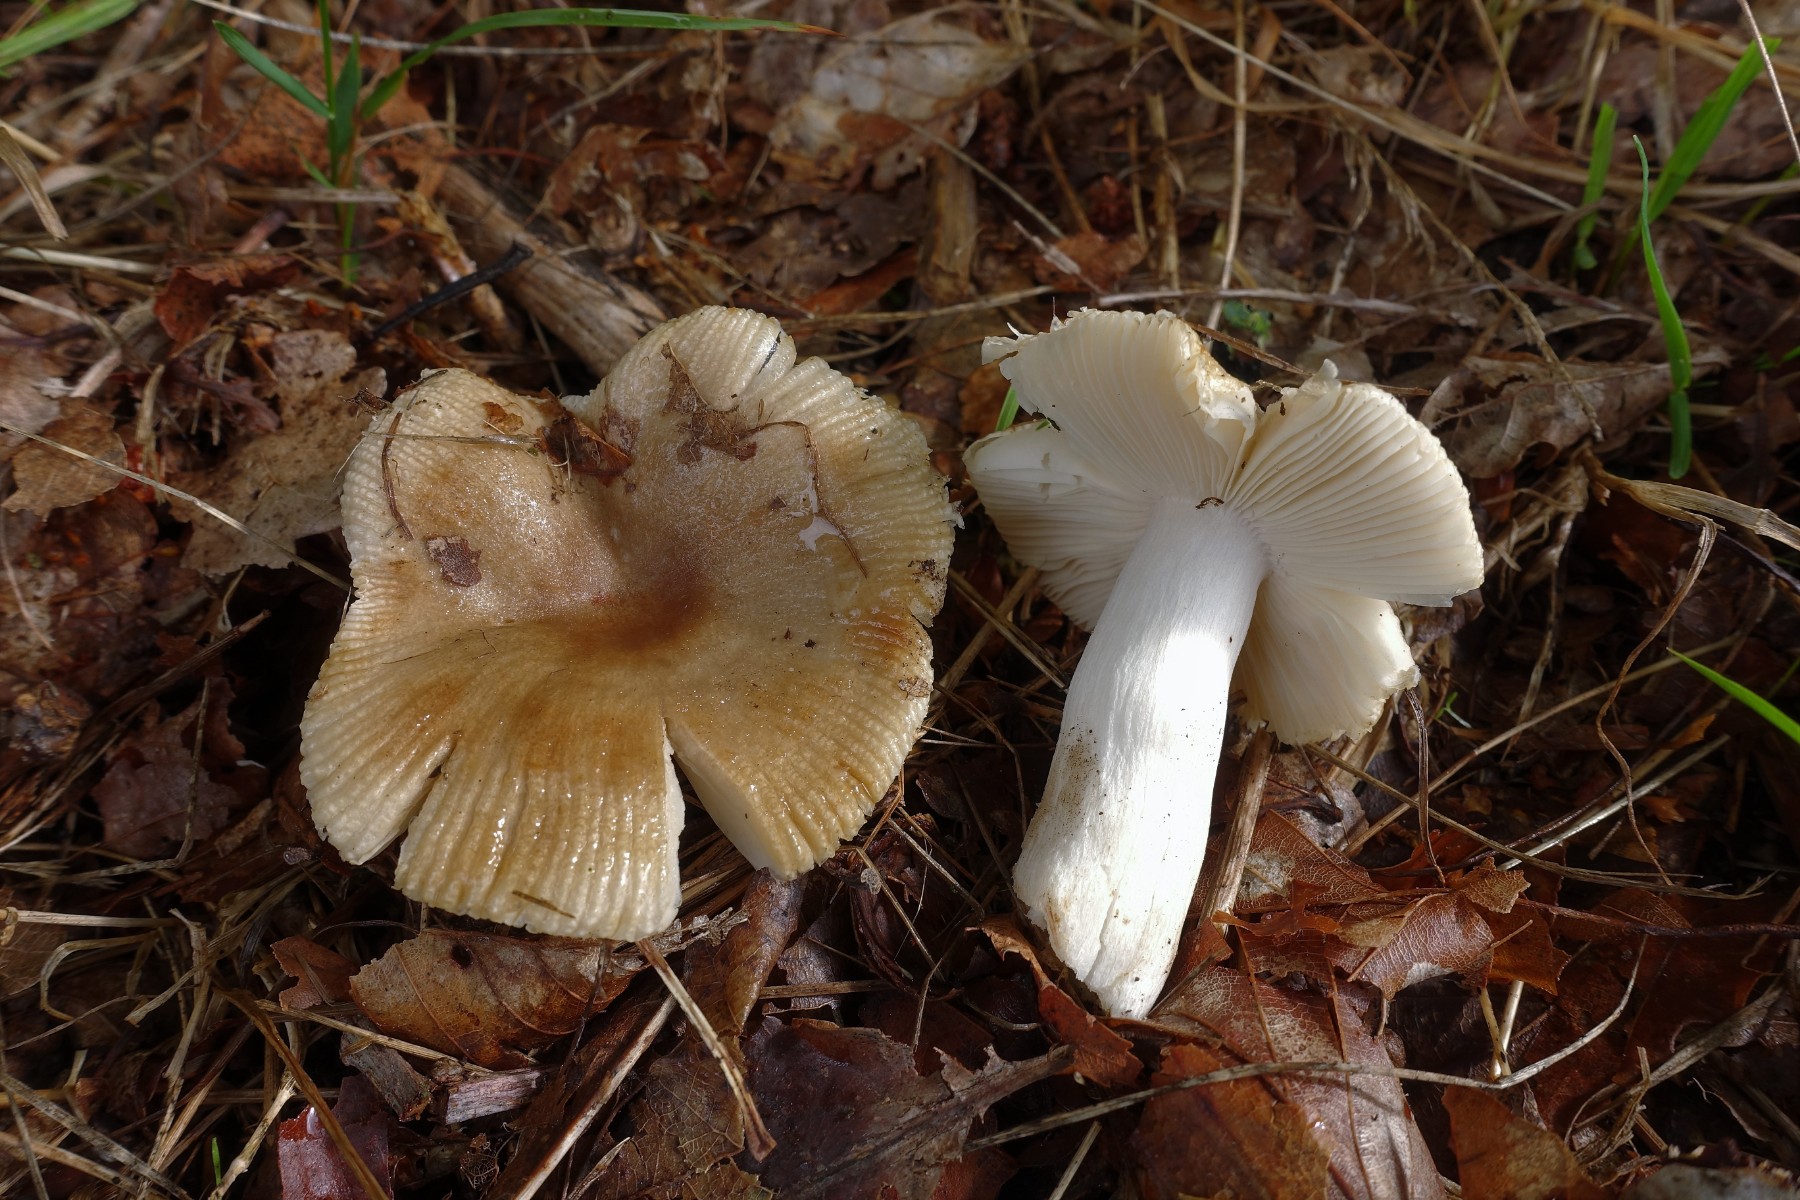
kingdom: Fungi
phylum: Basidiomycota
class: Agaricomycetes
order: Russulales
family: Russulaceae
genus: Russula
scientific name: Russula amoenolens
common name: skarp kam-skørhat
